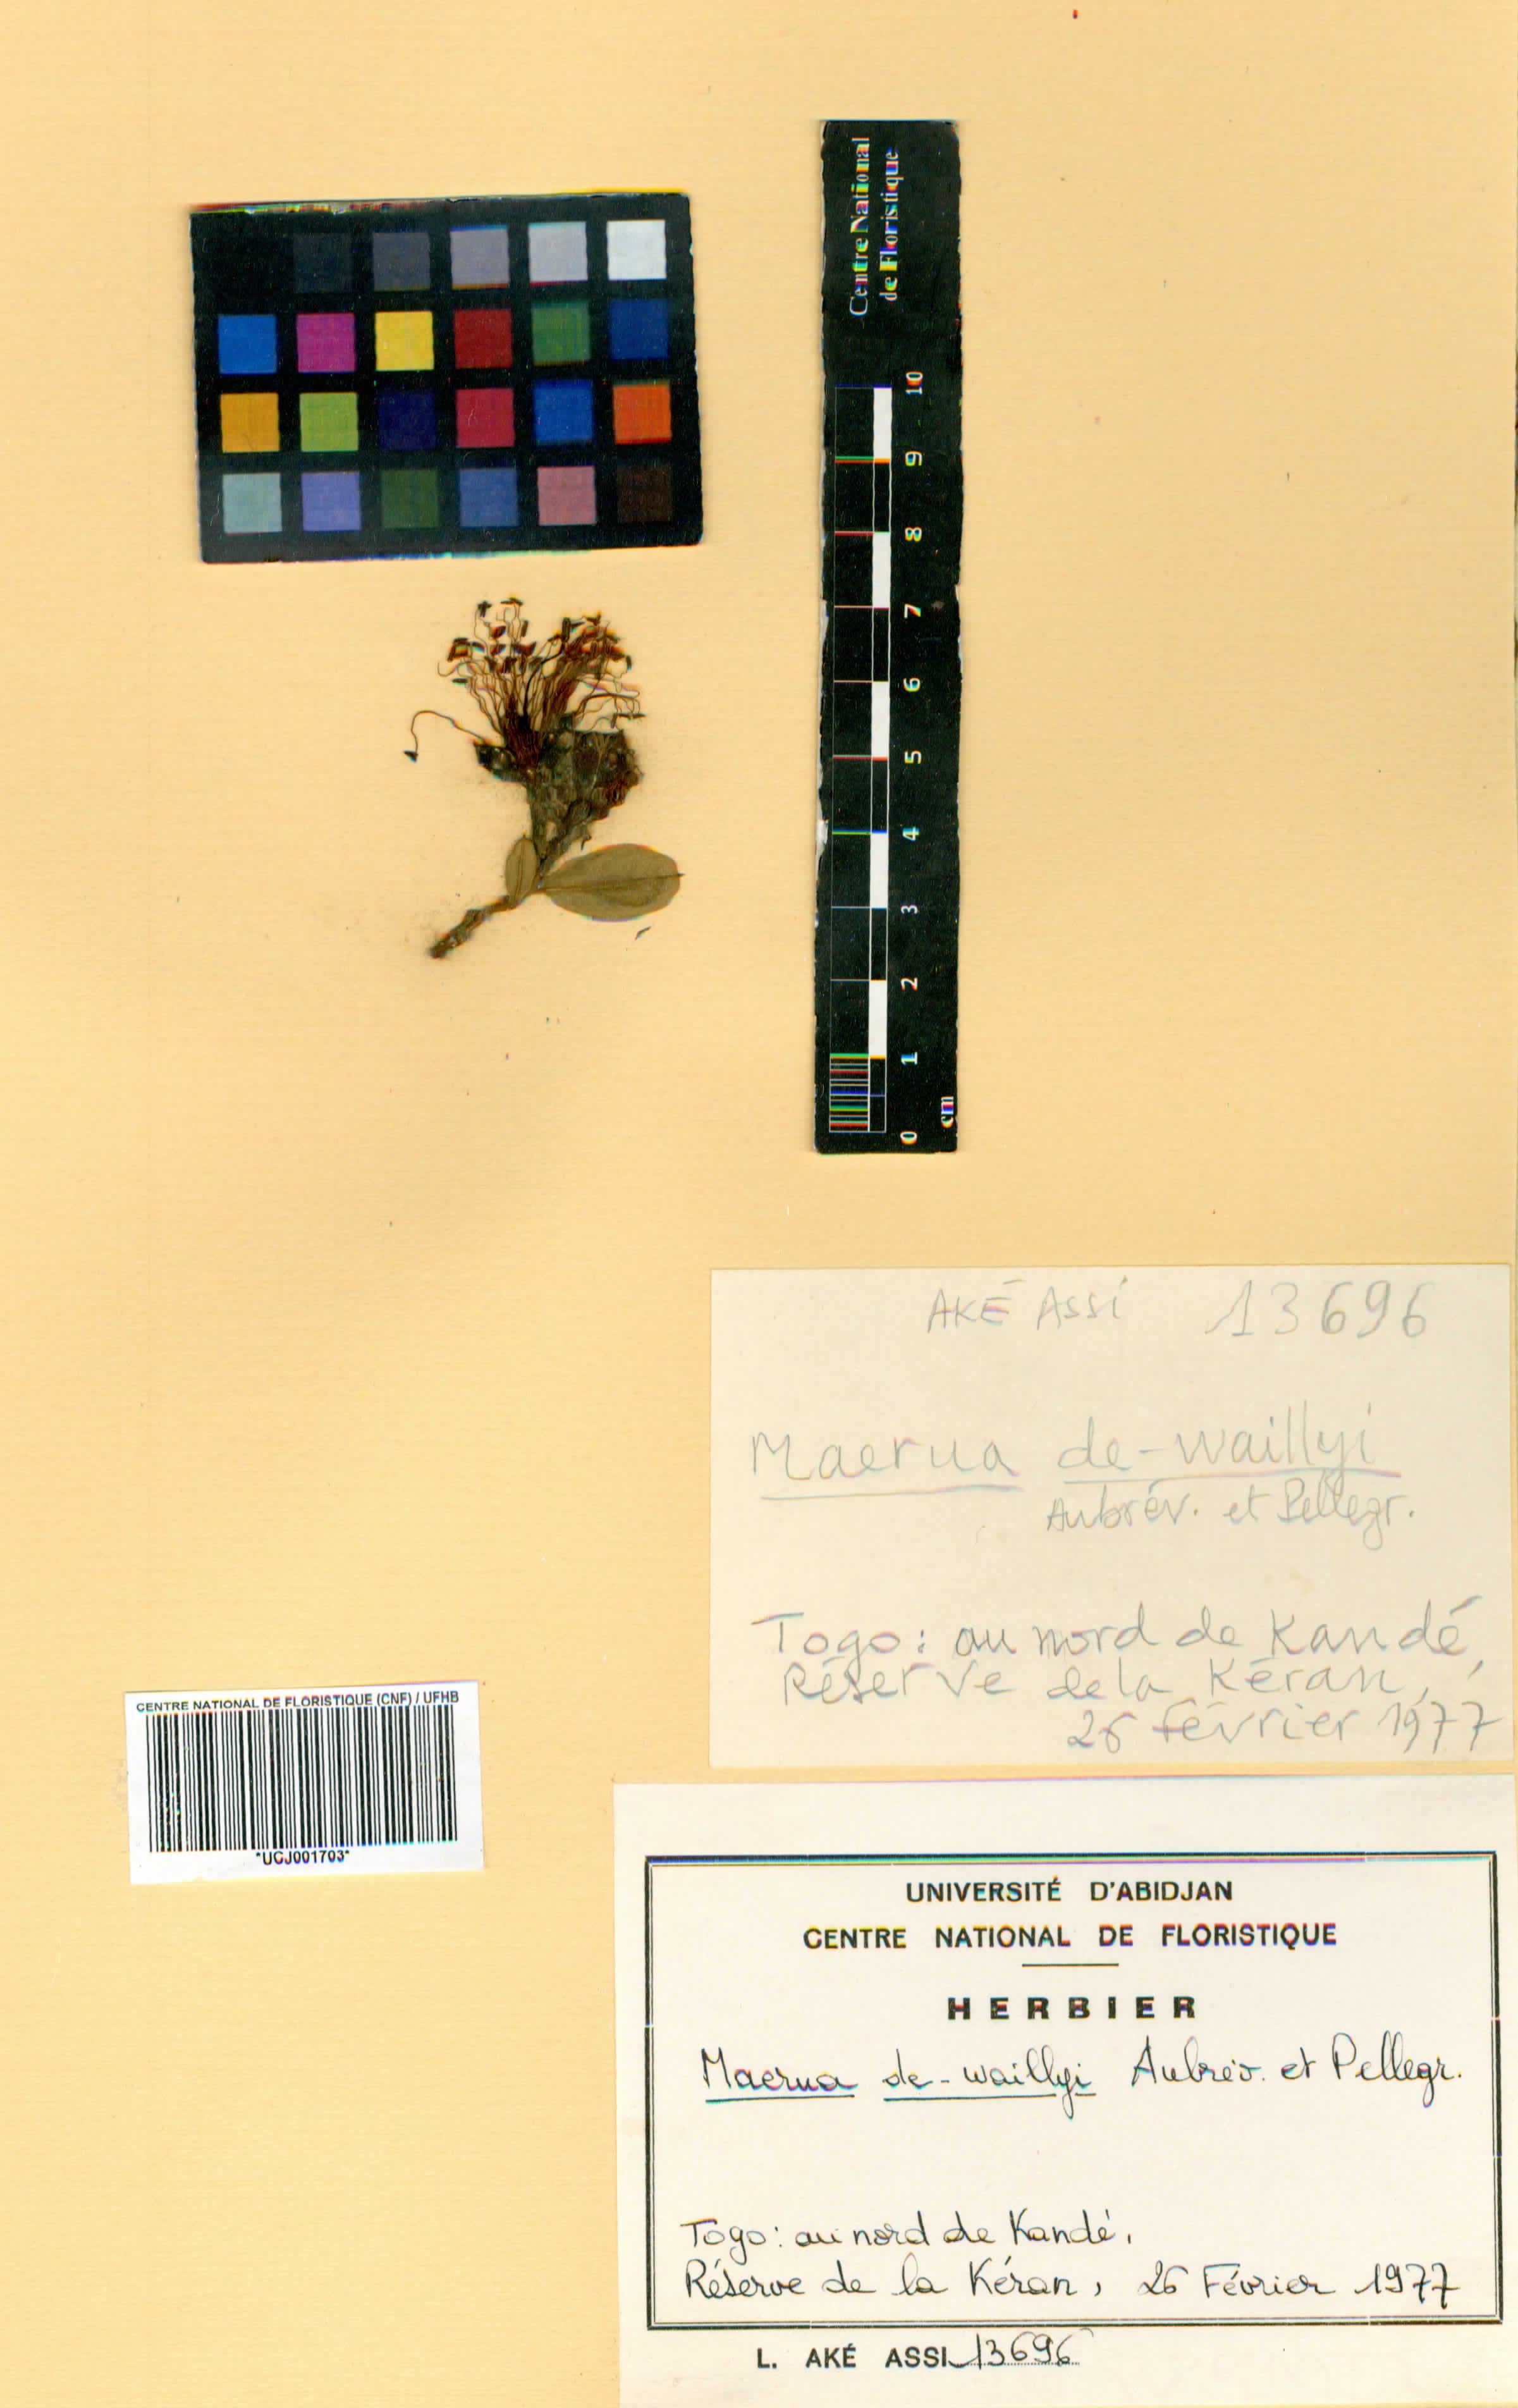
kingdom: Plantae
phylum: Tracheophyta
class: Magnoliopsida
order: Brassicales
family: Capparaceae
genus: Maerua
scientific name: Maerua dewaillyi
